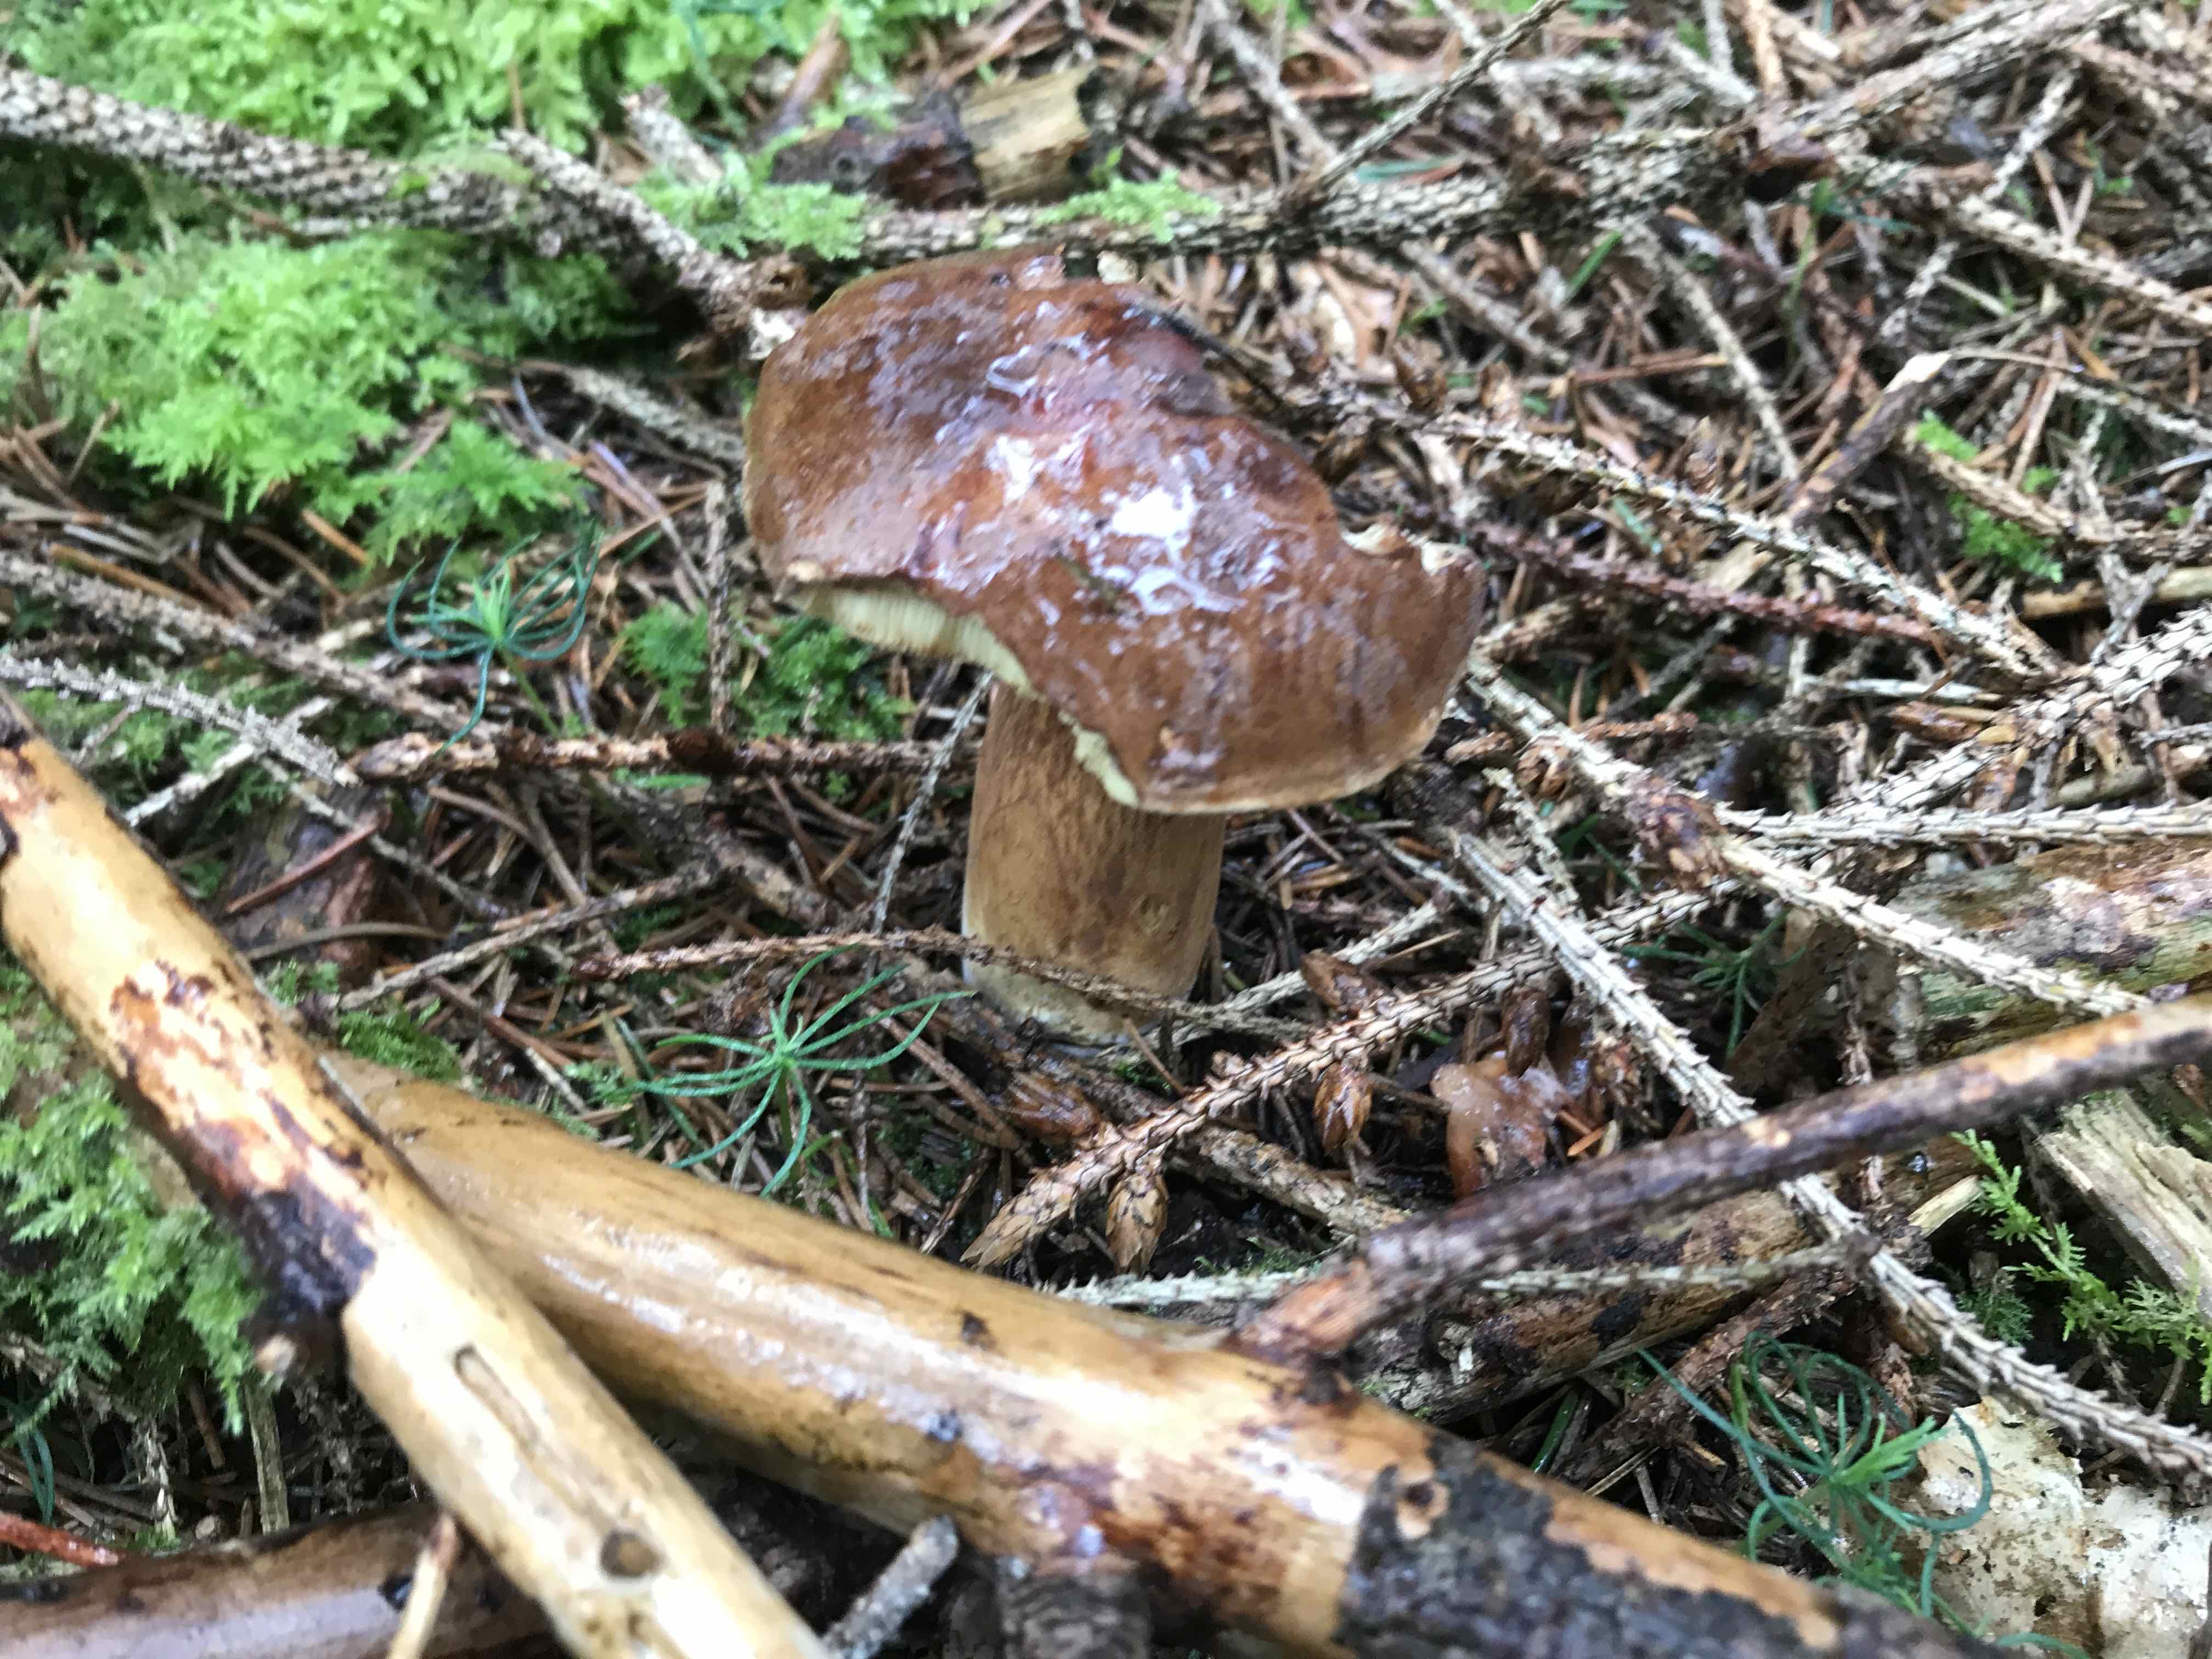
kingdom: Fungi
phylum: Basidiomycota
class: Agaricomycetes
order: Boletales
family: Boletaceae
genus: Imleria
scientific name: Imleria badia
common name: brunstokket rørhat
